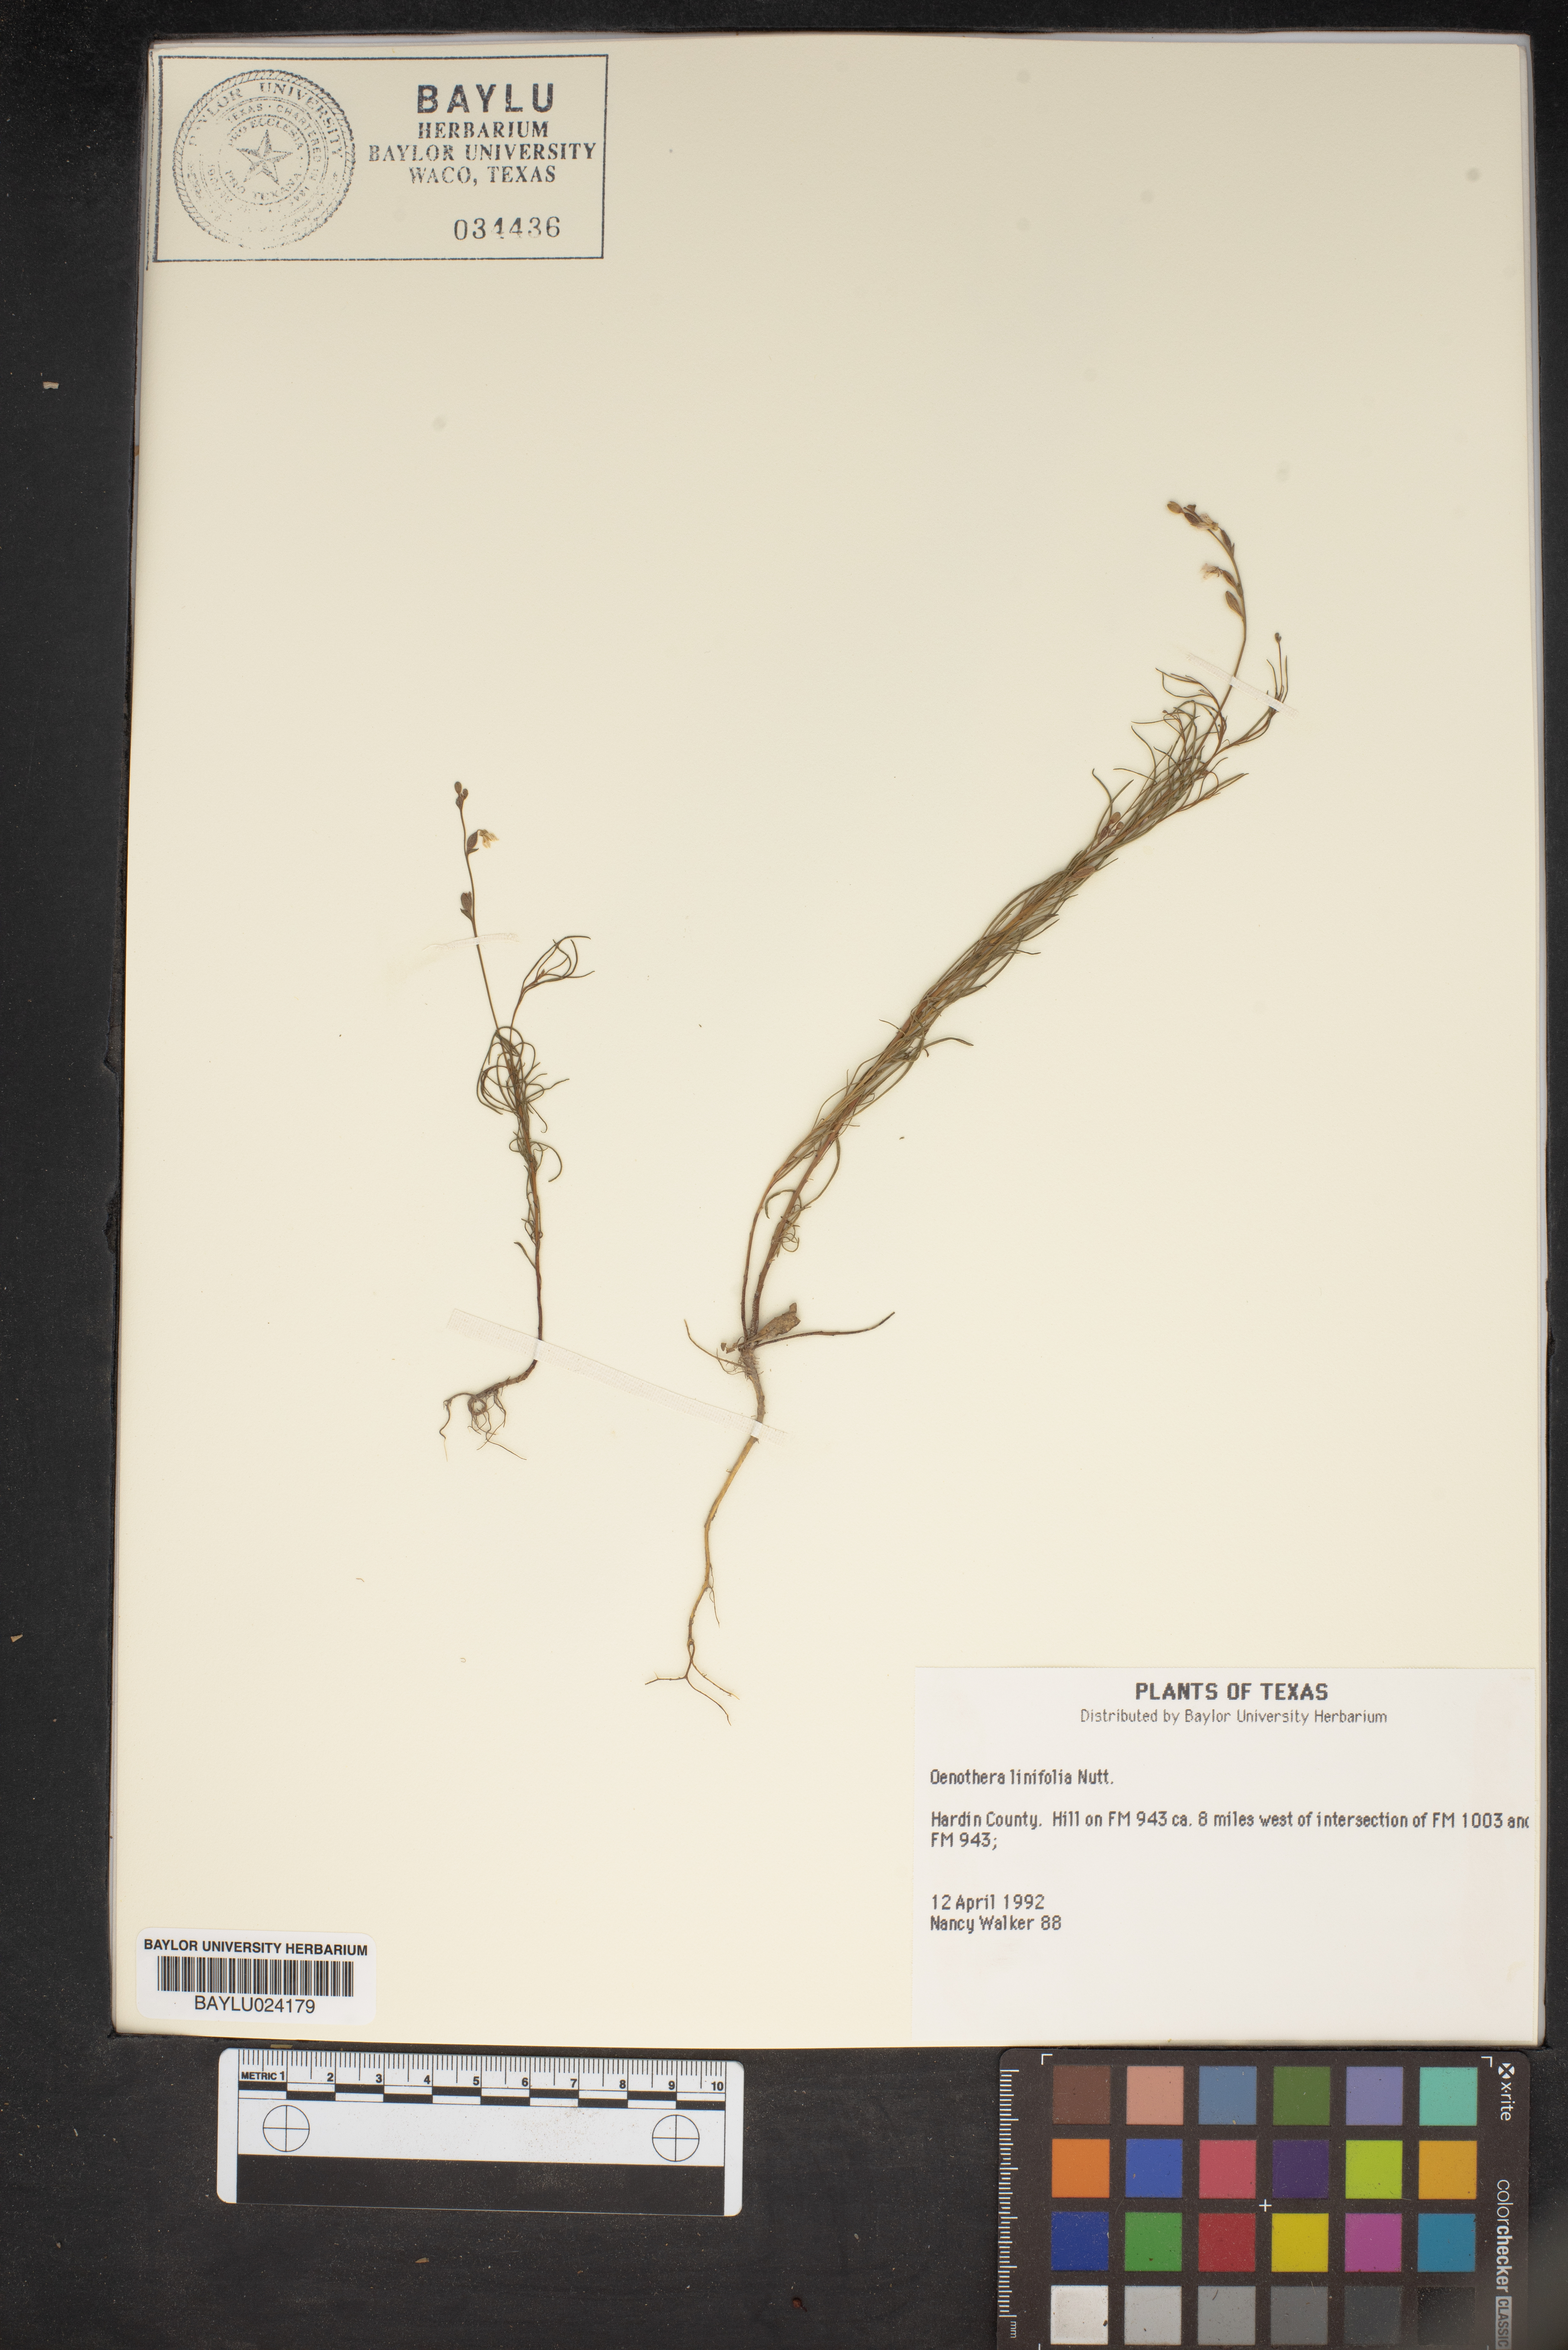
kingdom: Plantae
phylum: Tracheophyta
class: Magnoliopsida
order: Myrtales
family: Onagraceae
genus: Oenothera
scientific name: Oenothera linifolia
